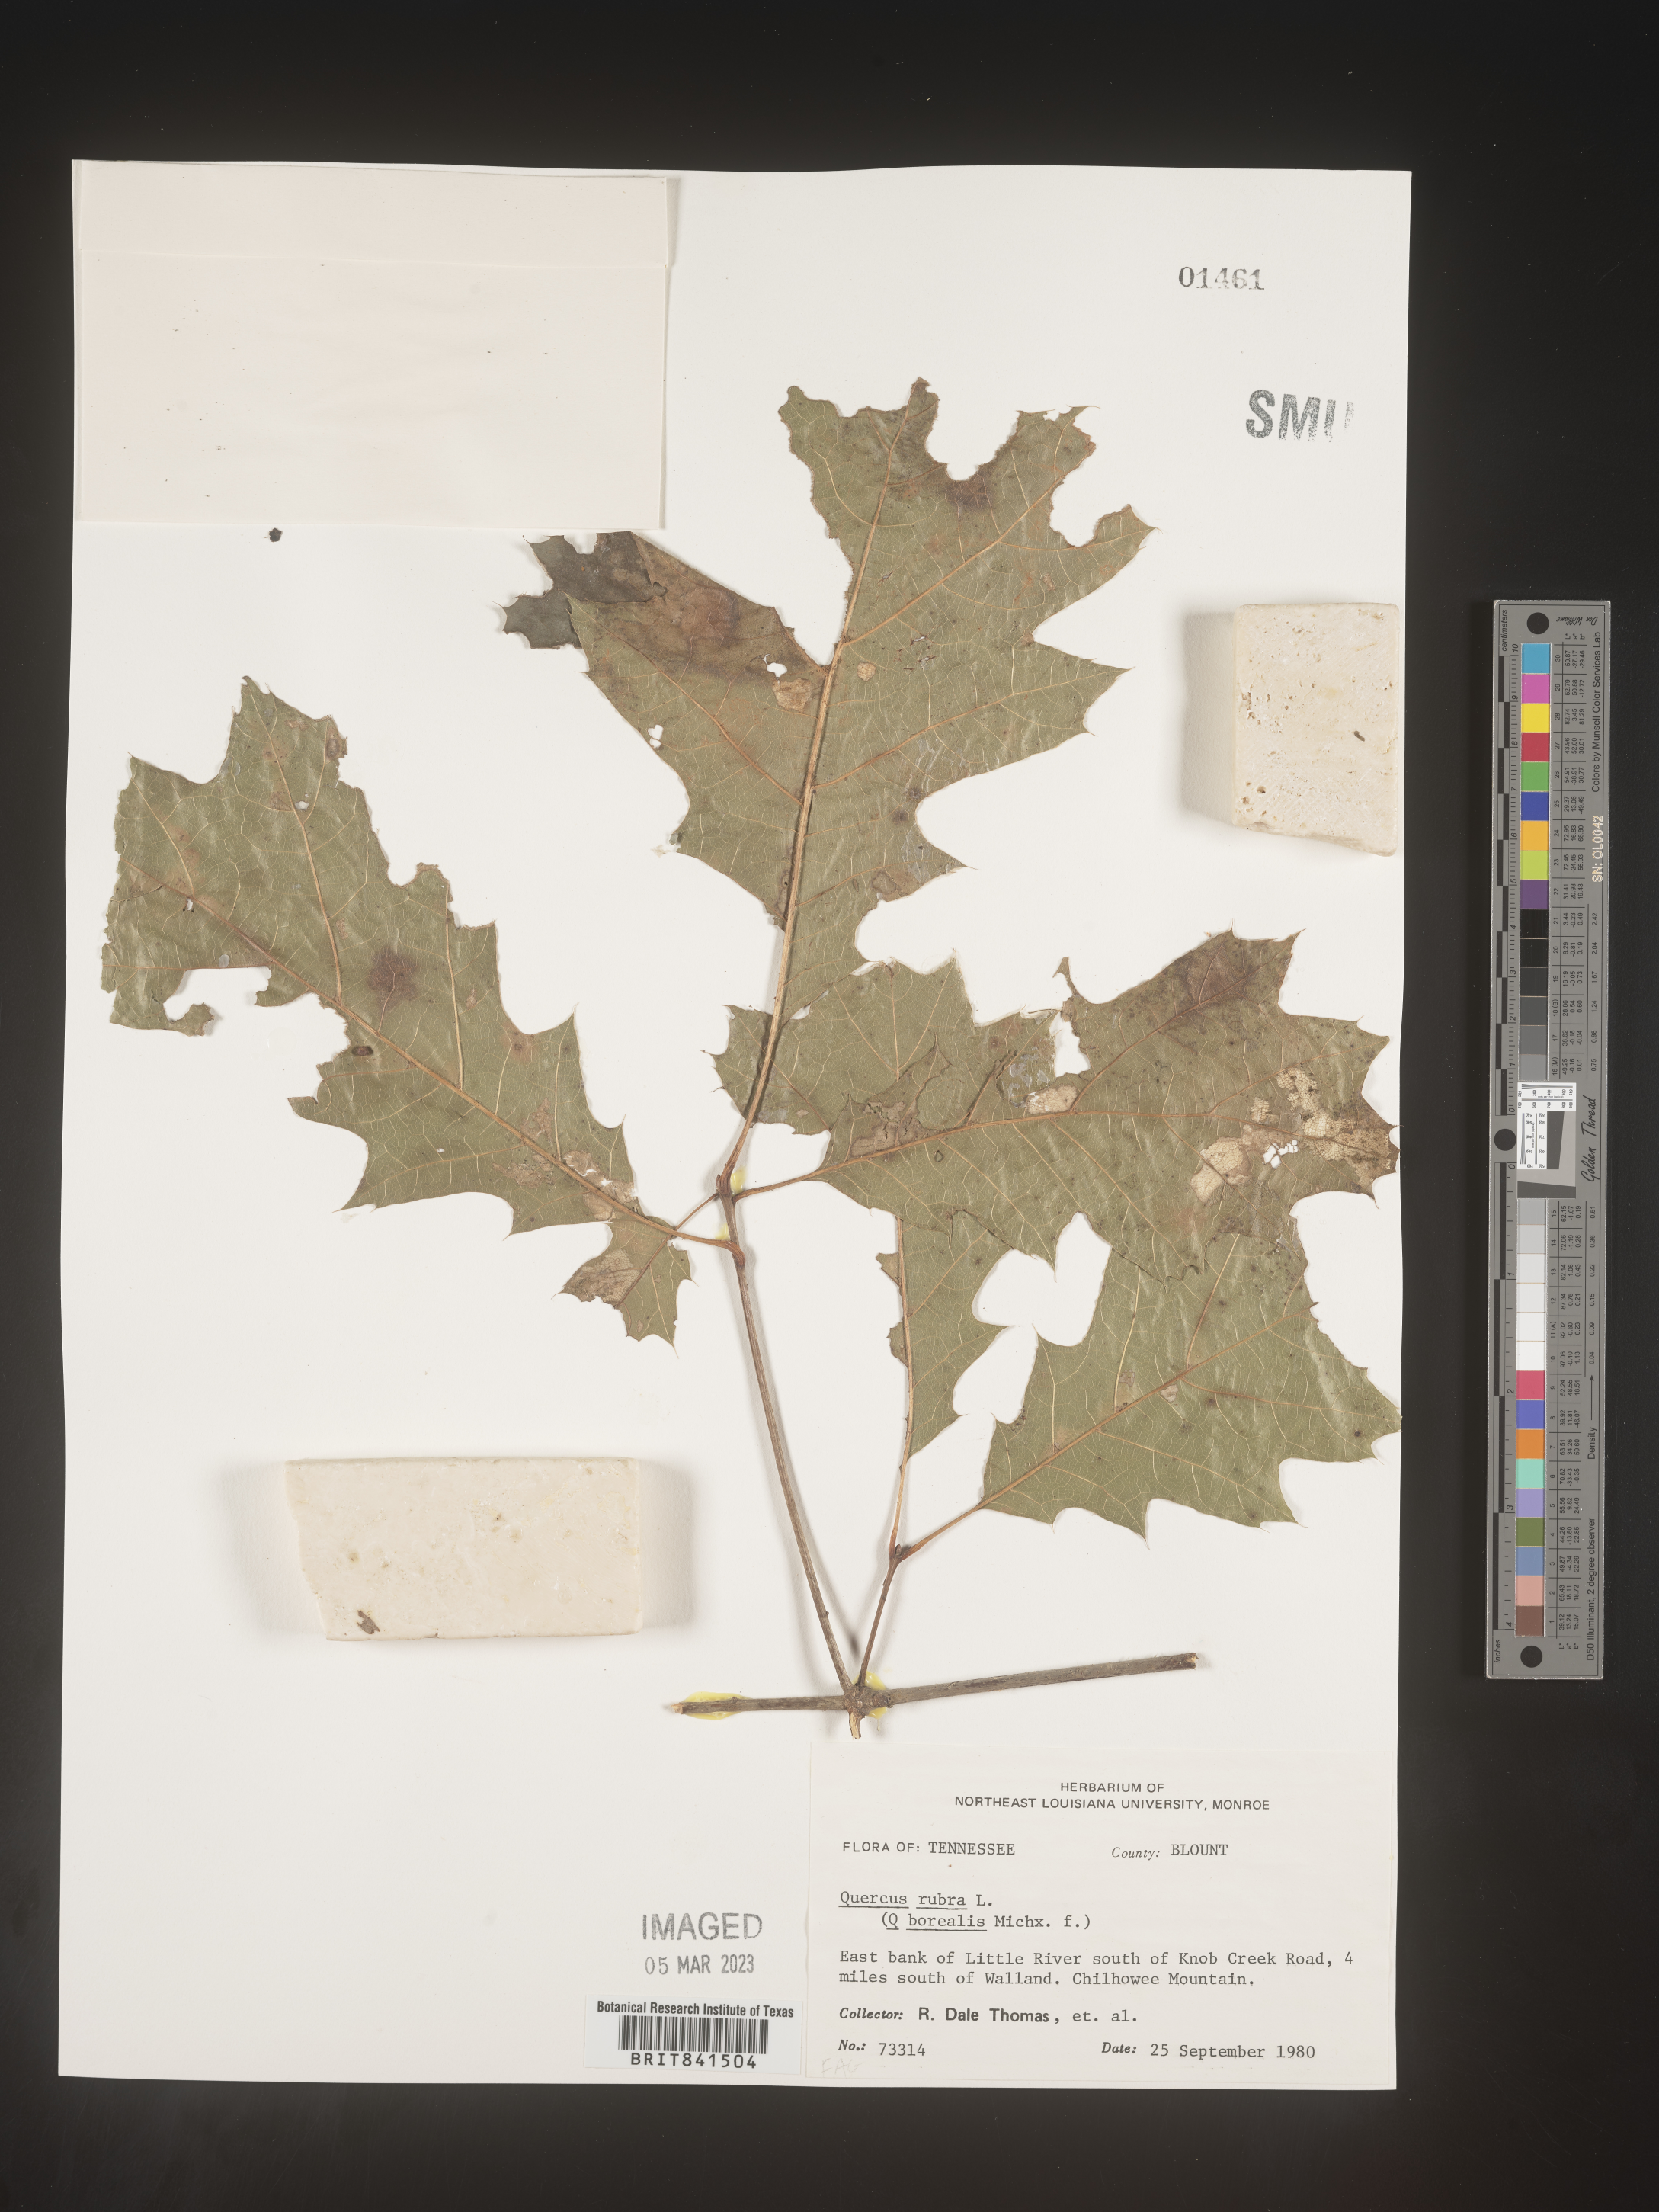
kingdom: Plantae
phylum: Tracheophyta
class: Magnoliopsida
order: Fagales
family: Fagaceae
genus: Quercus
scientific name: Quercus rubra
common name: Red oak
